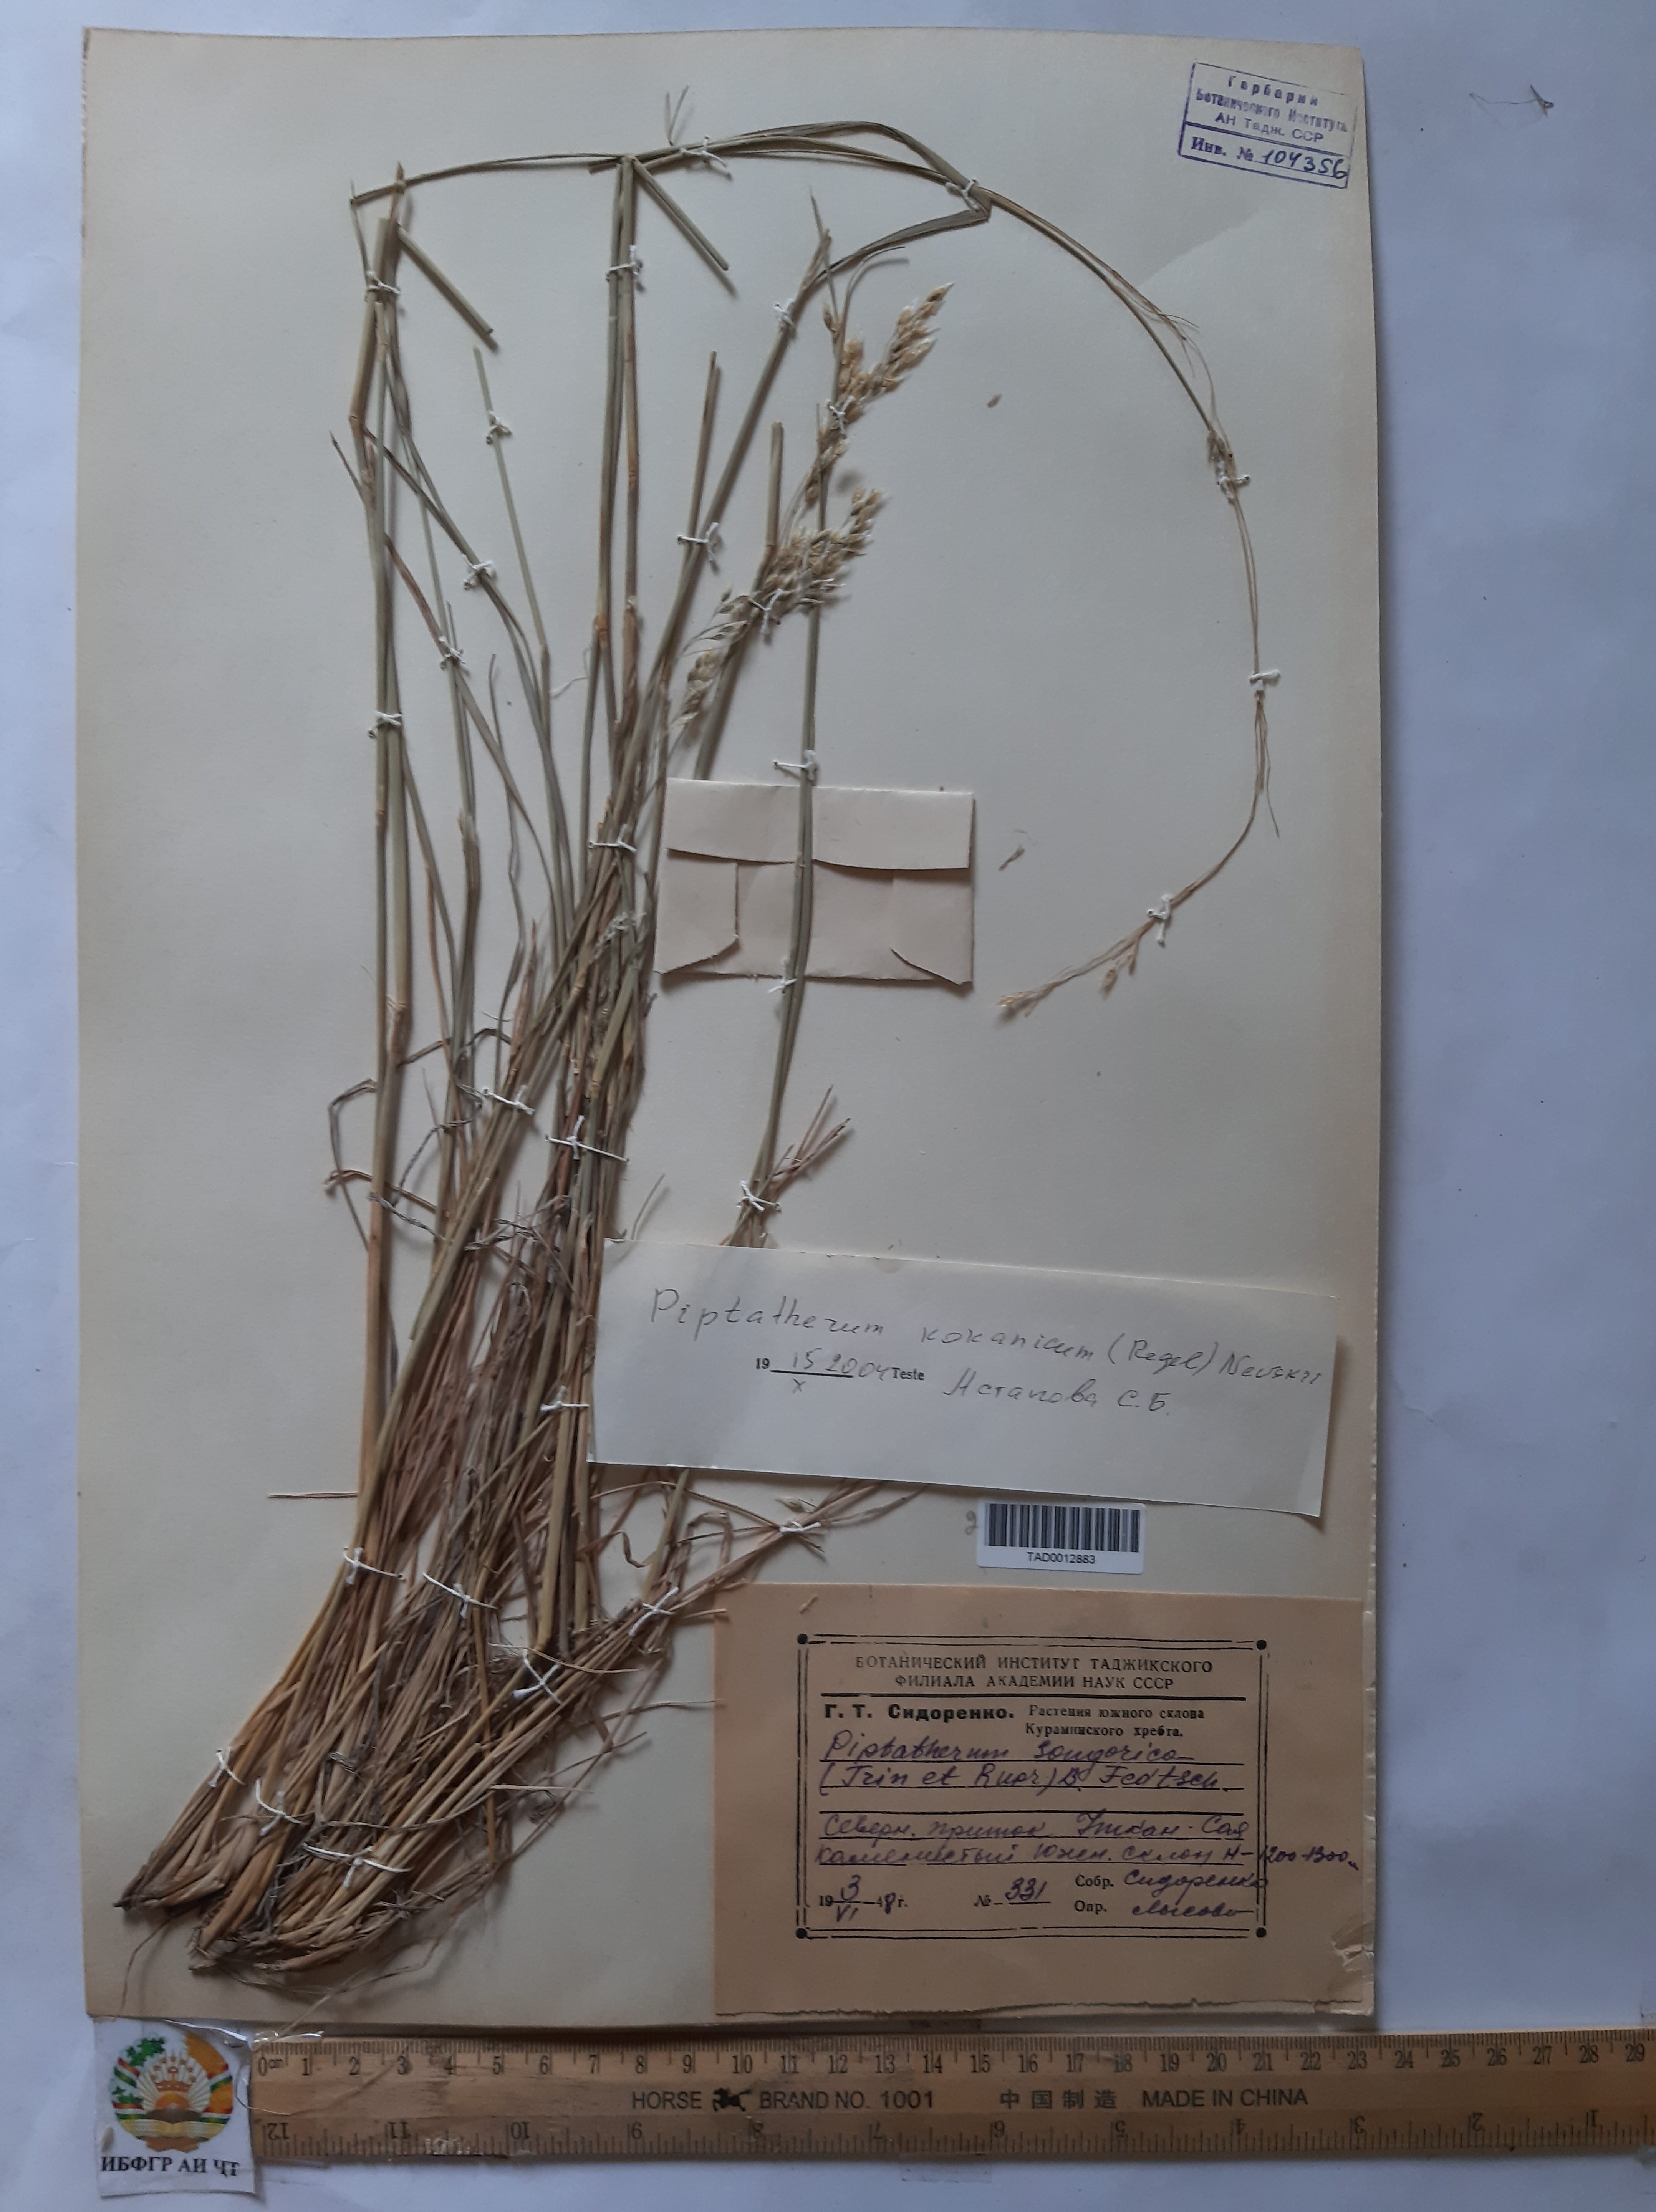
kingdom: Plantae
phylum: Tracheophyta
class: Liliopsida
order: Poales
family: Poaceae
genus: Piptatherum
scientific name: Piptatherum songaricum
